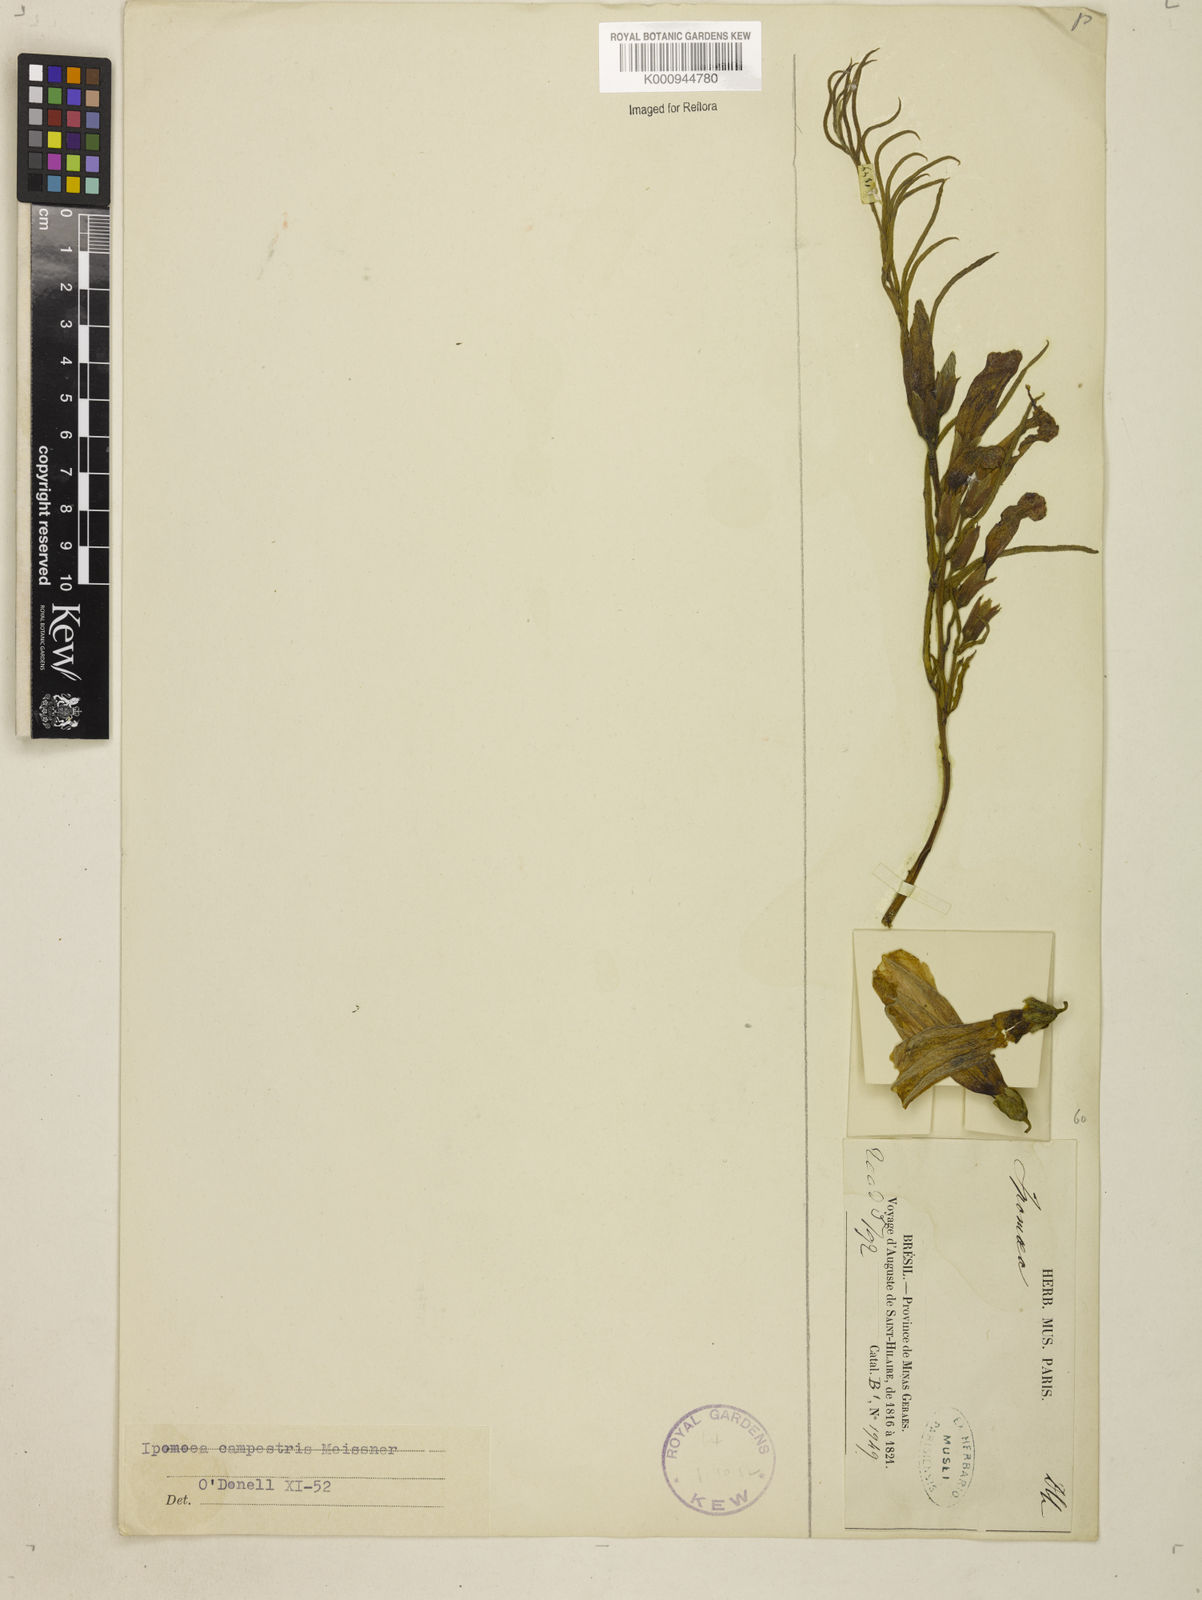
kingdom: Plantae
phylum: Tracheophyta
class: Magnoliopsida
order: Solanales
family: Convolvulaceae
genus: Ipomoea
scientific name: Ipomoea campestris
